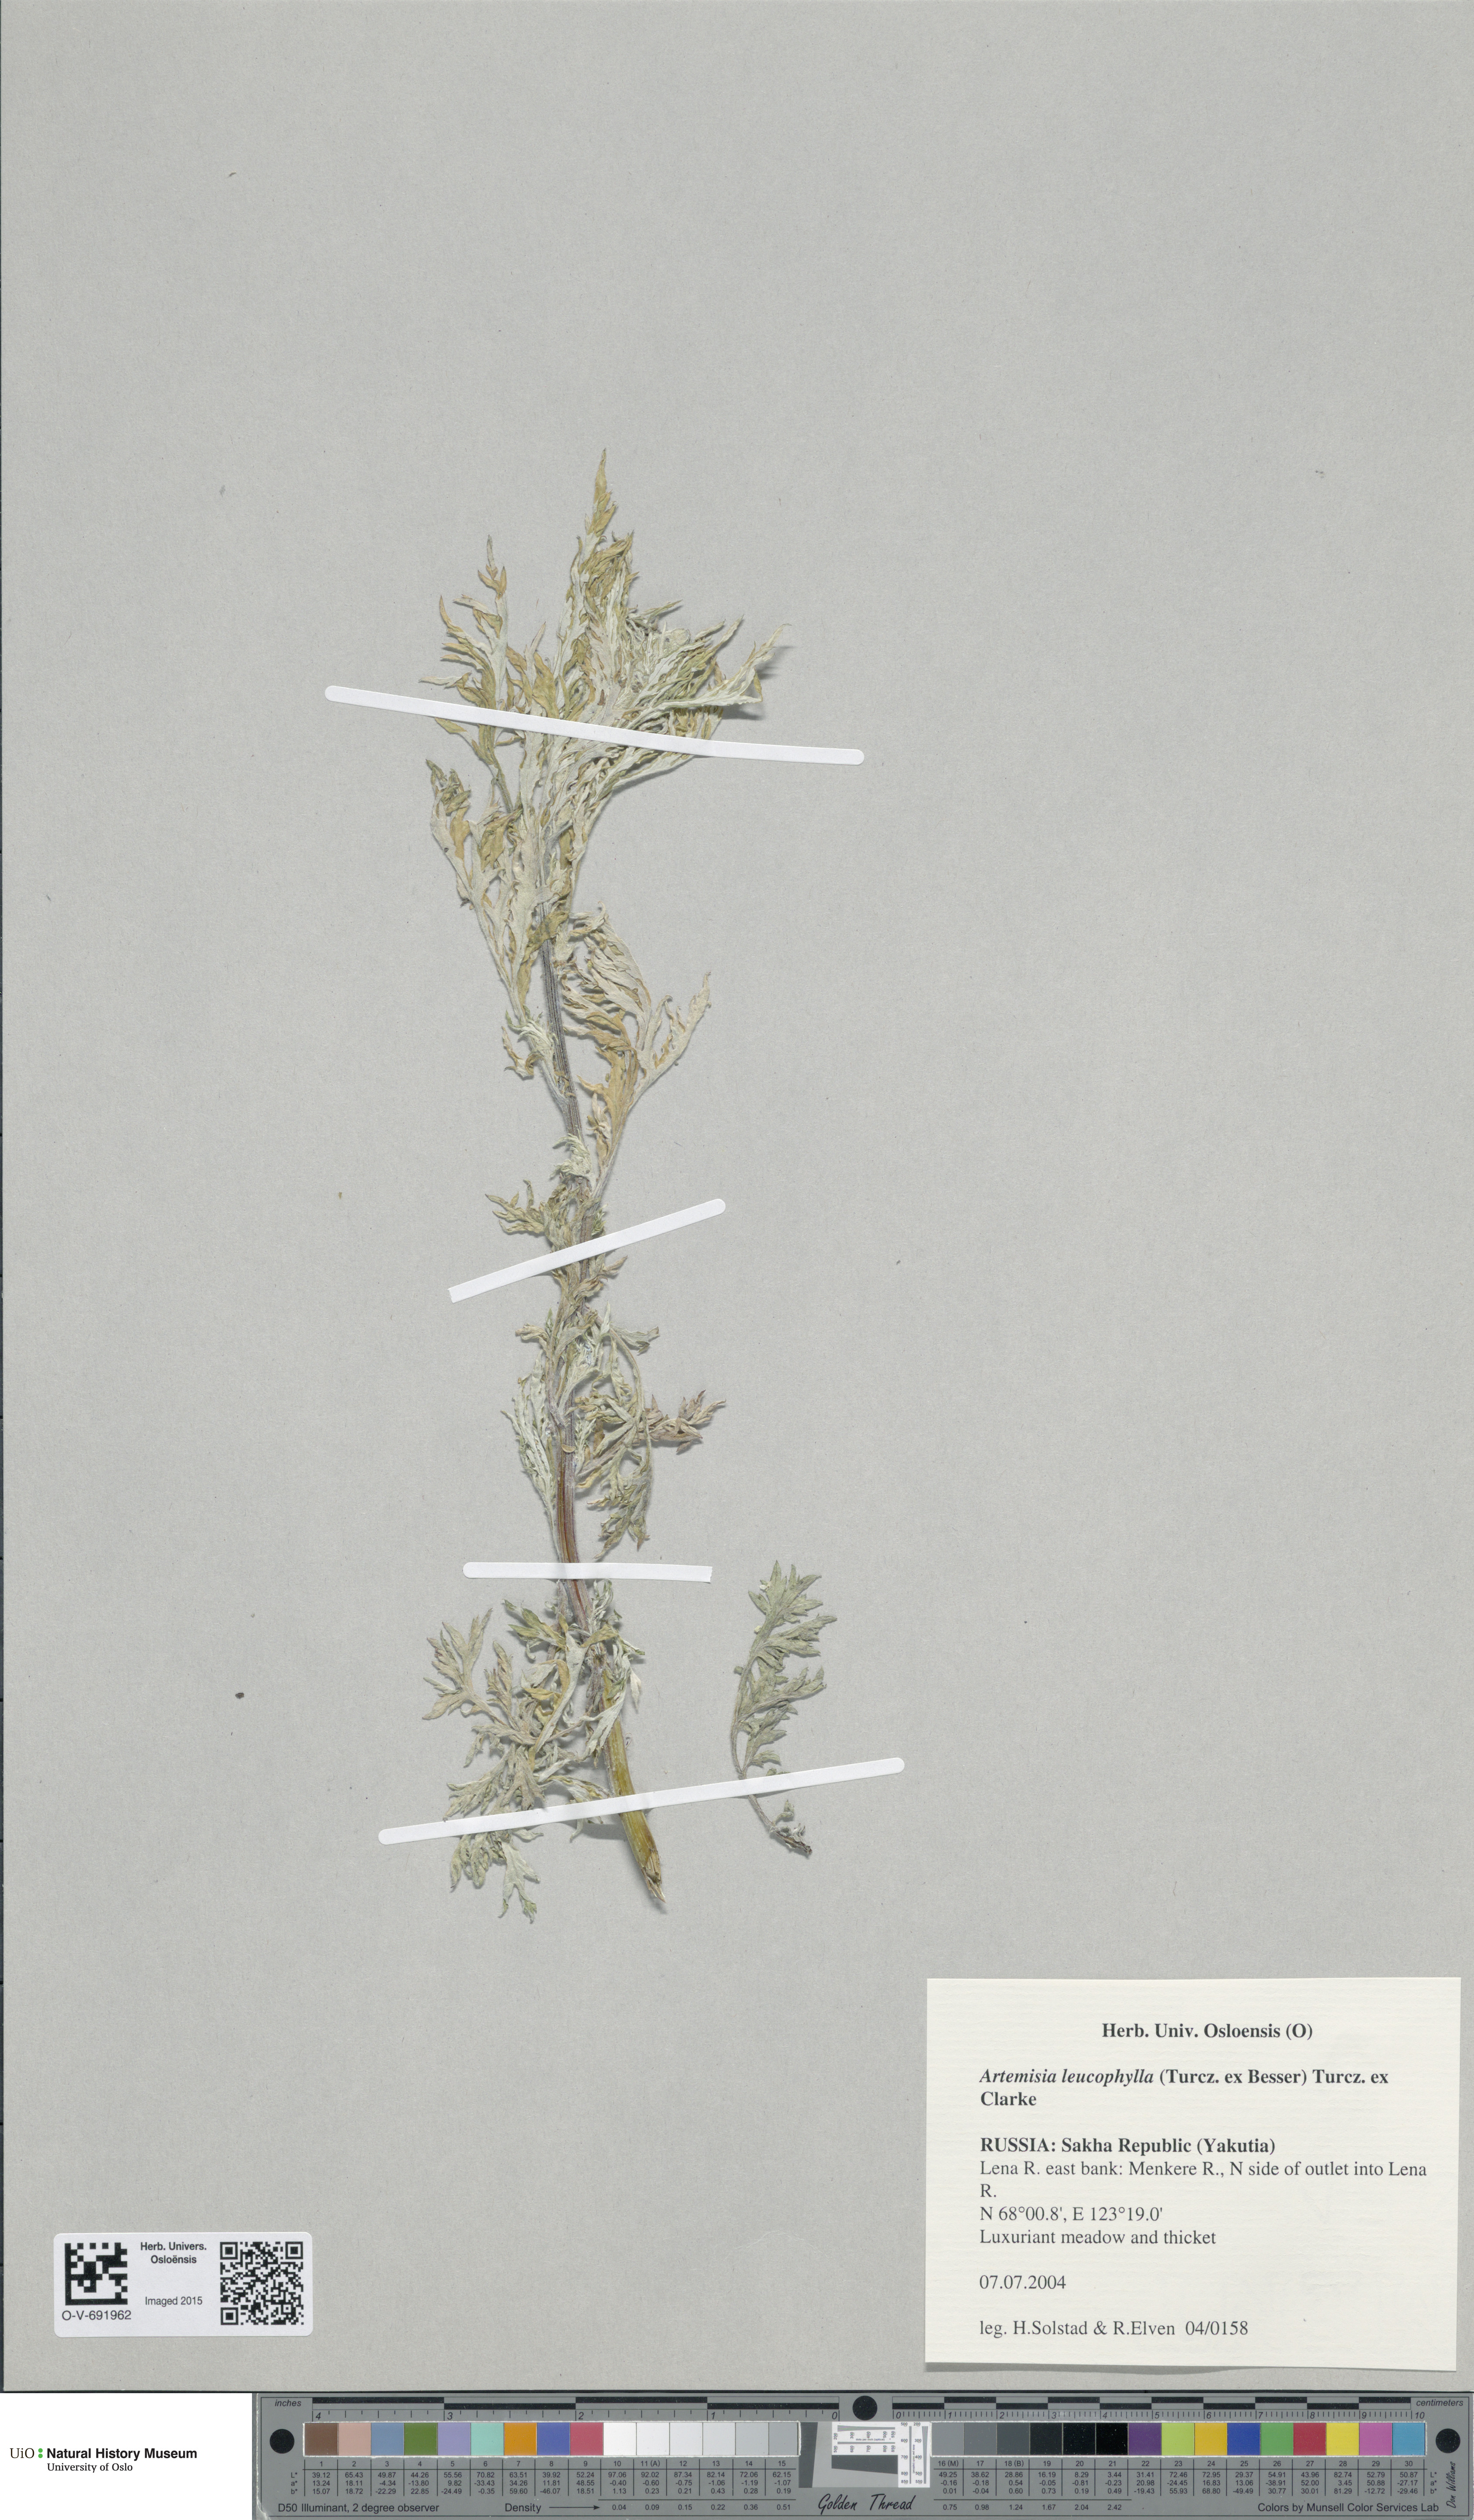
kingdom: Plantae
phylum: Tracheophyta
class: Magnoliopsida
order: Asterales
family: Asteraceae
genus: Artemisia
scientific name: Artemisia leucophylla
